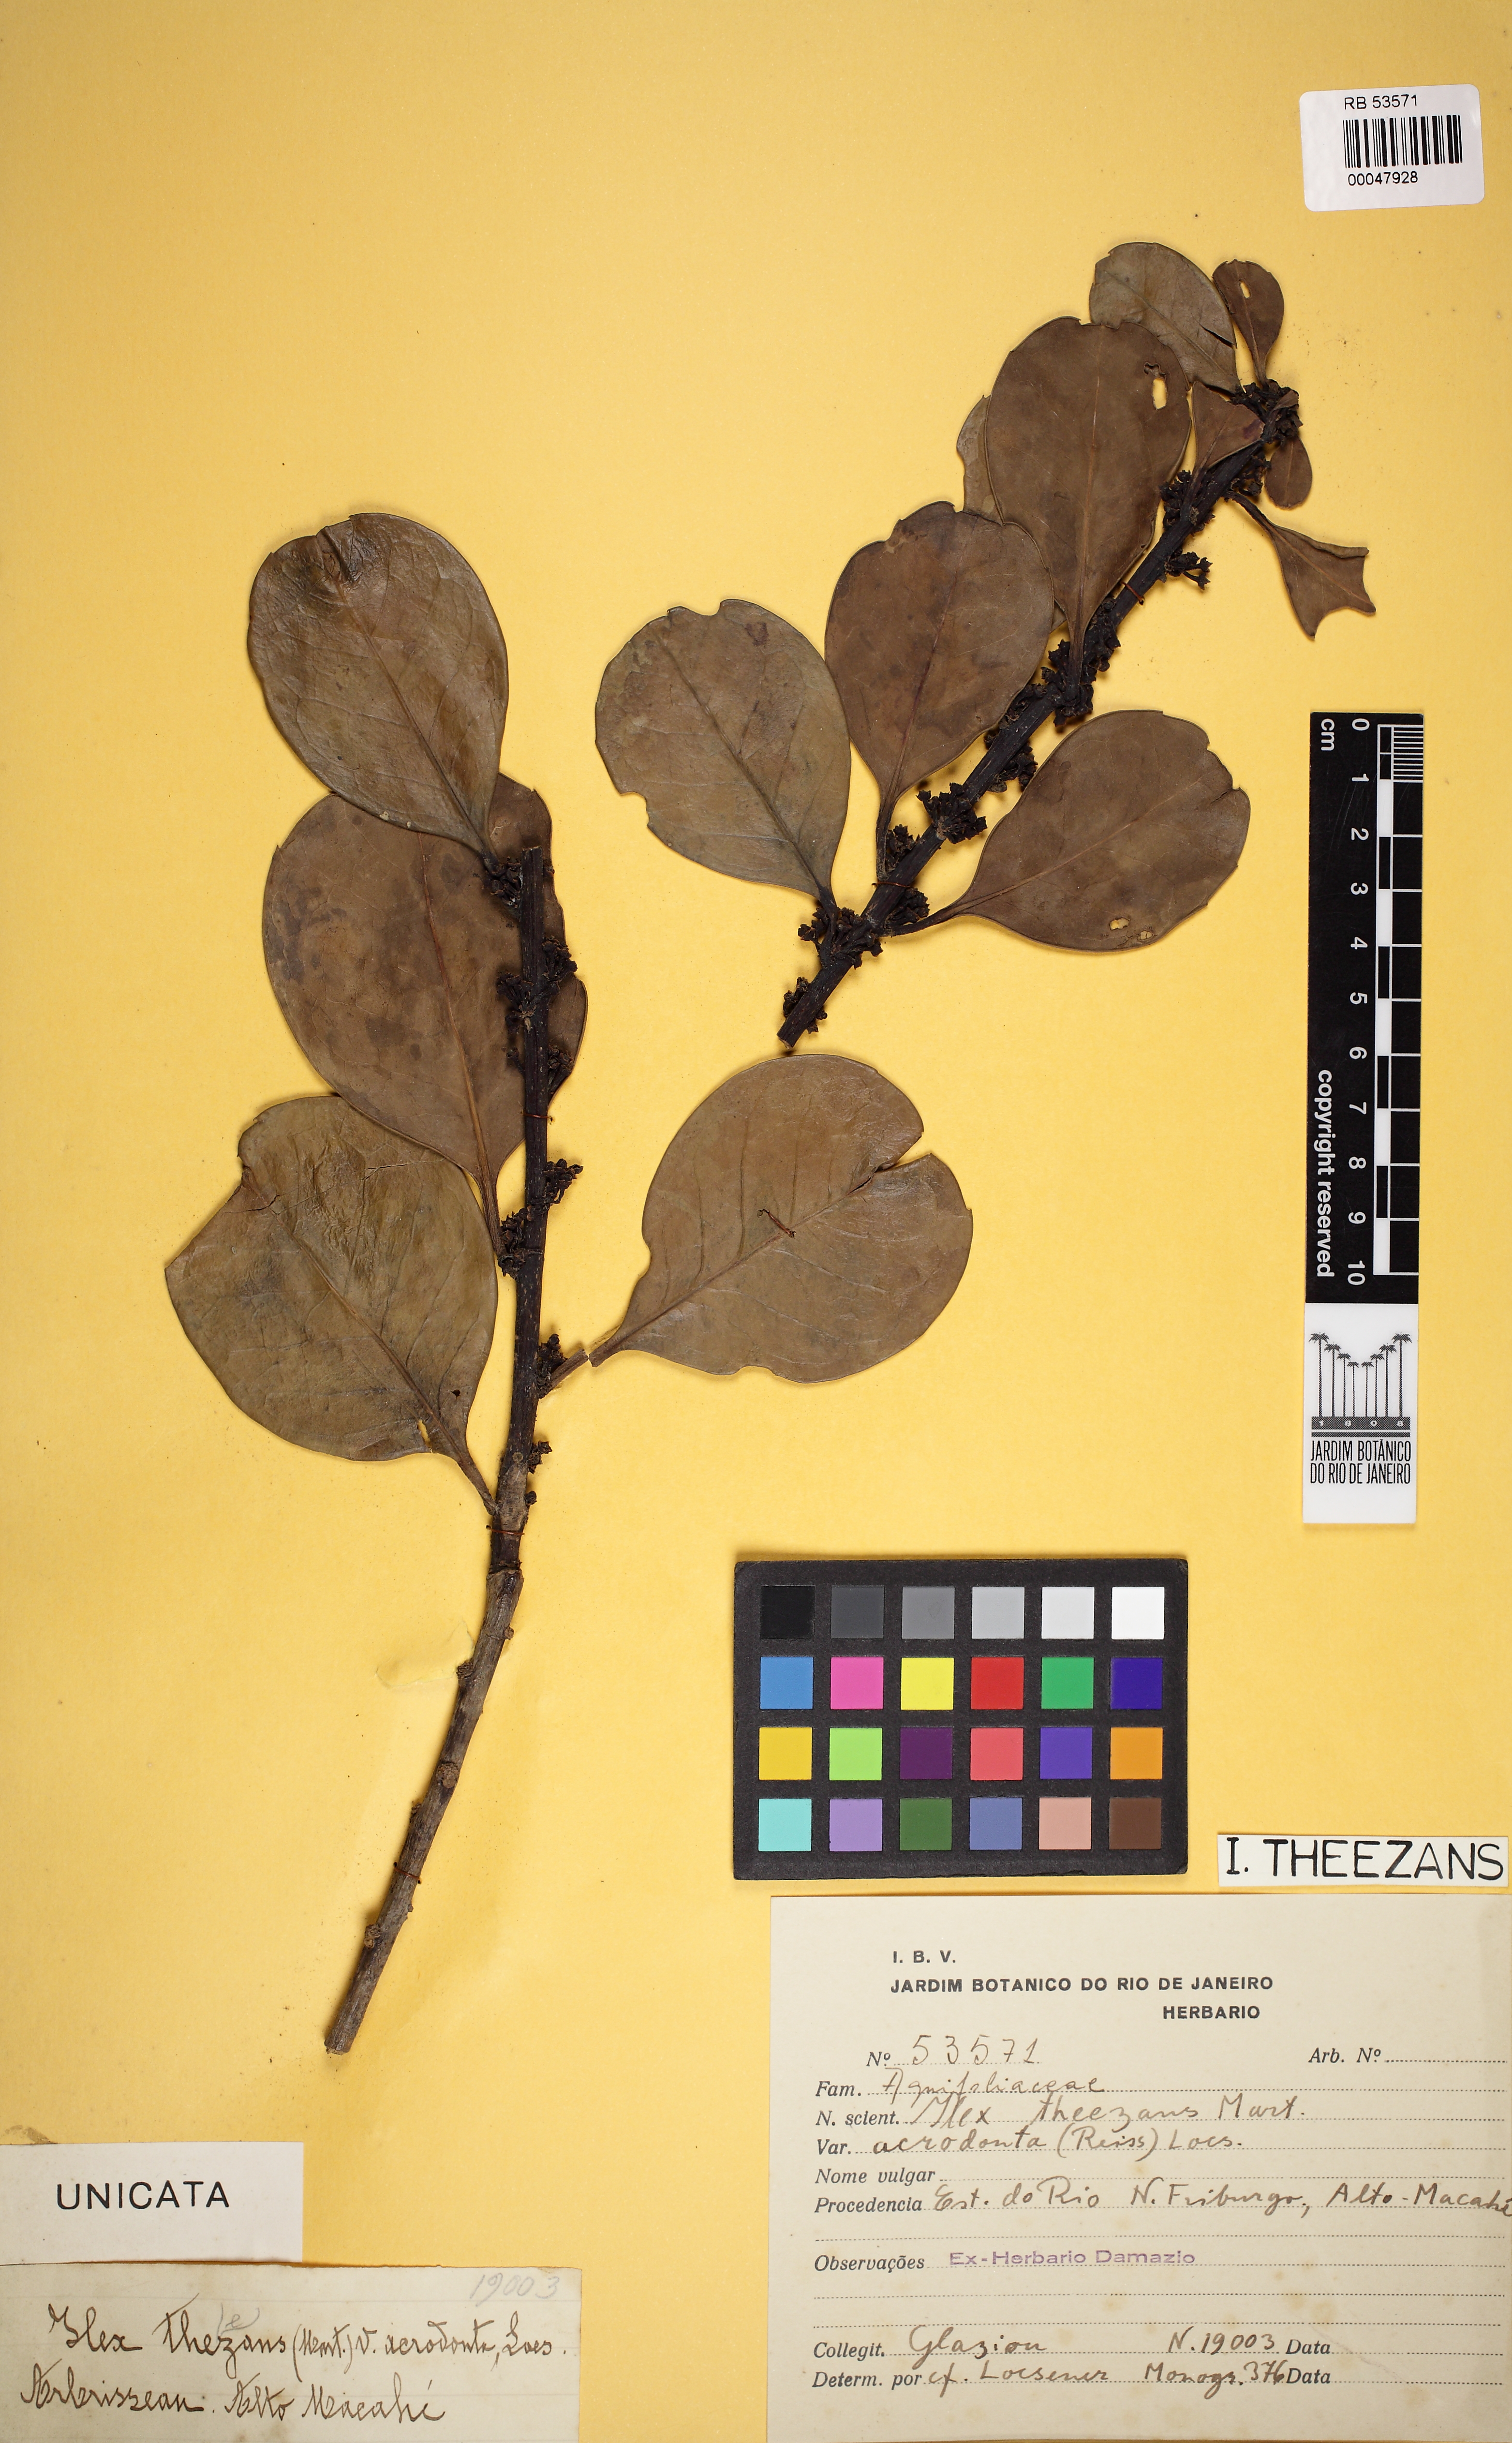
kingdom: Plantae
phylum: Tracheophyta
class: Magnoliopsida
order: Aquifoliales
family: Aquifoliaceae
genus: Ilex
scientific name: Ilex theezans
